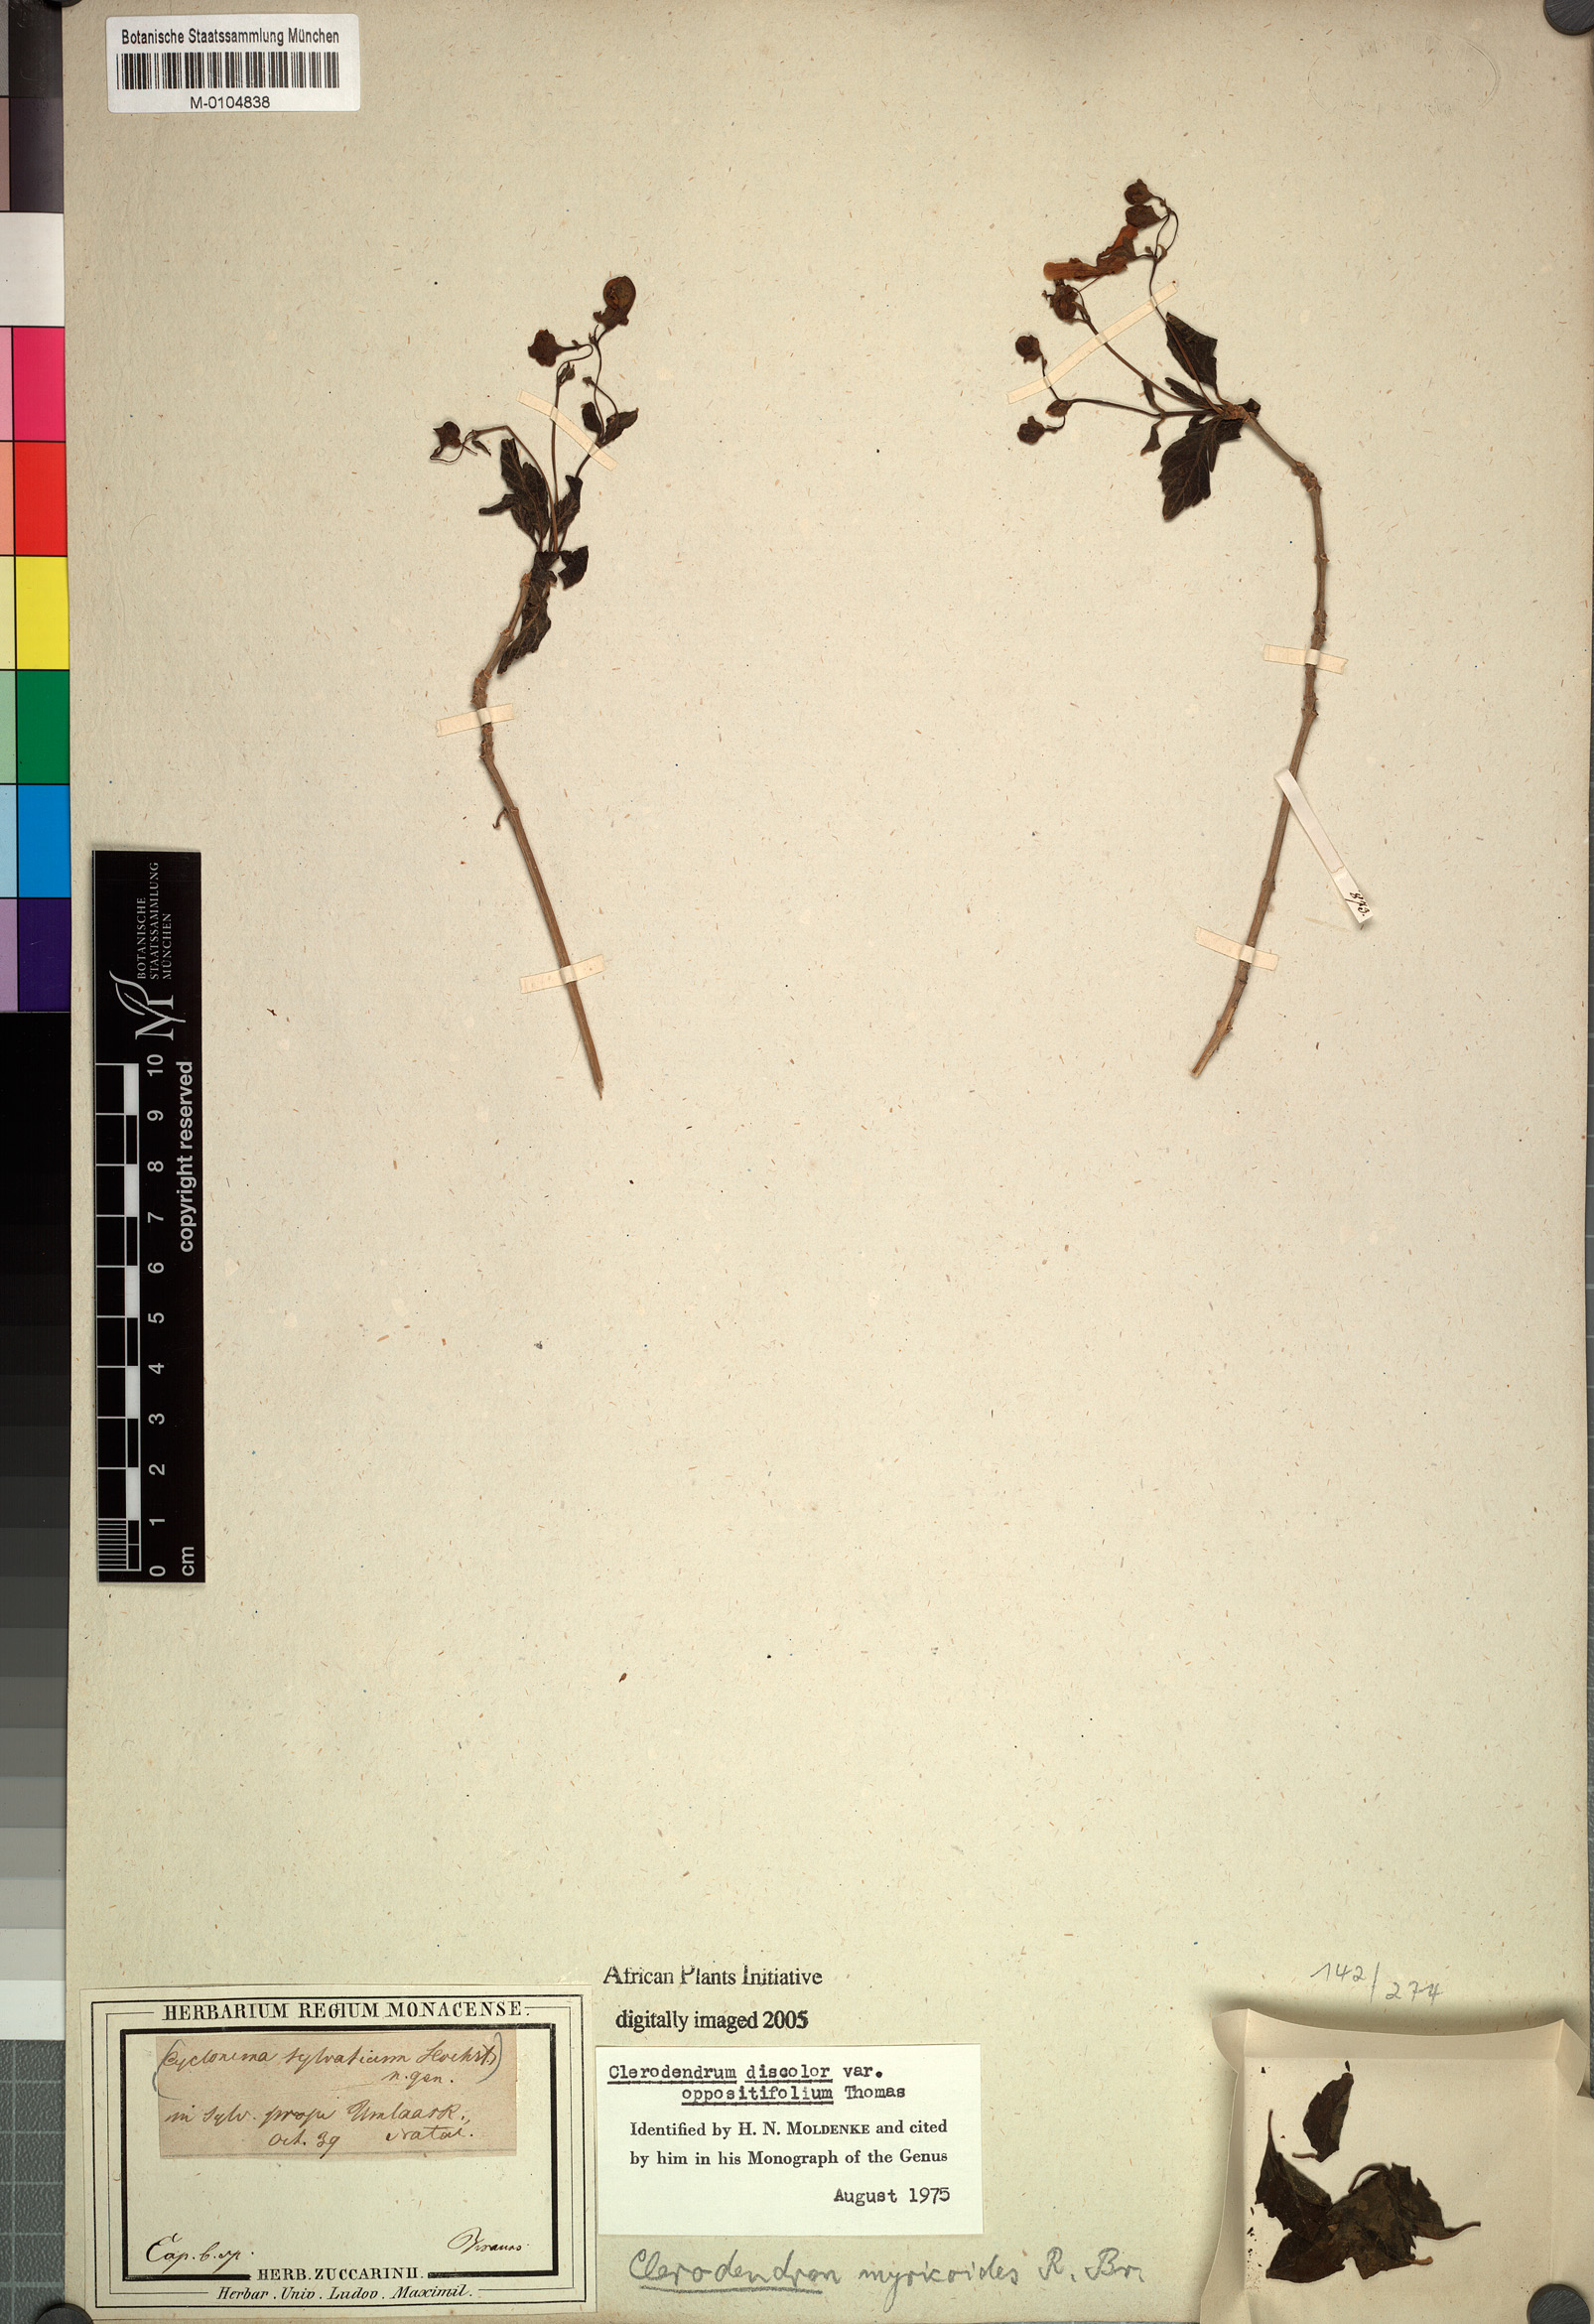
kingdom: Plantae
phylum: Tracheophyta
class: Magnoliopsida
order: Lamiales
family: Lamiaceae
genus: Rotheca
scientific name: Rotheca myricoides
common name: Cats-whiskers
